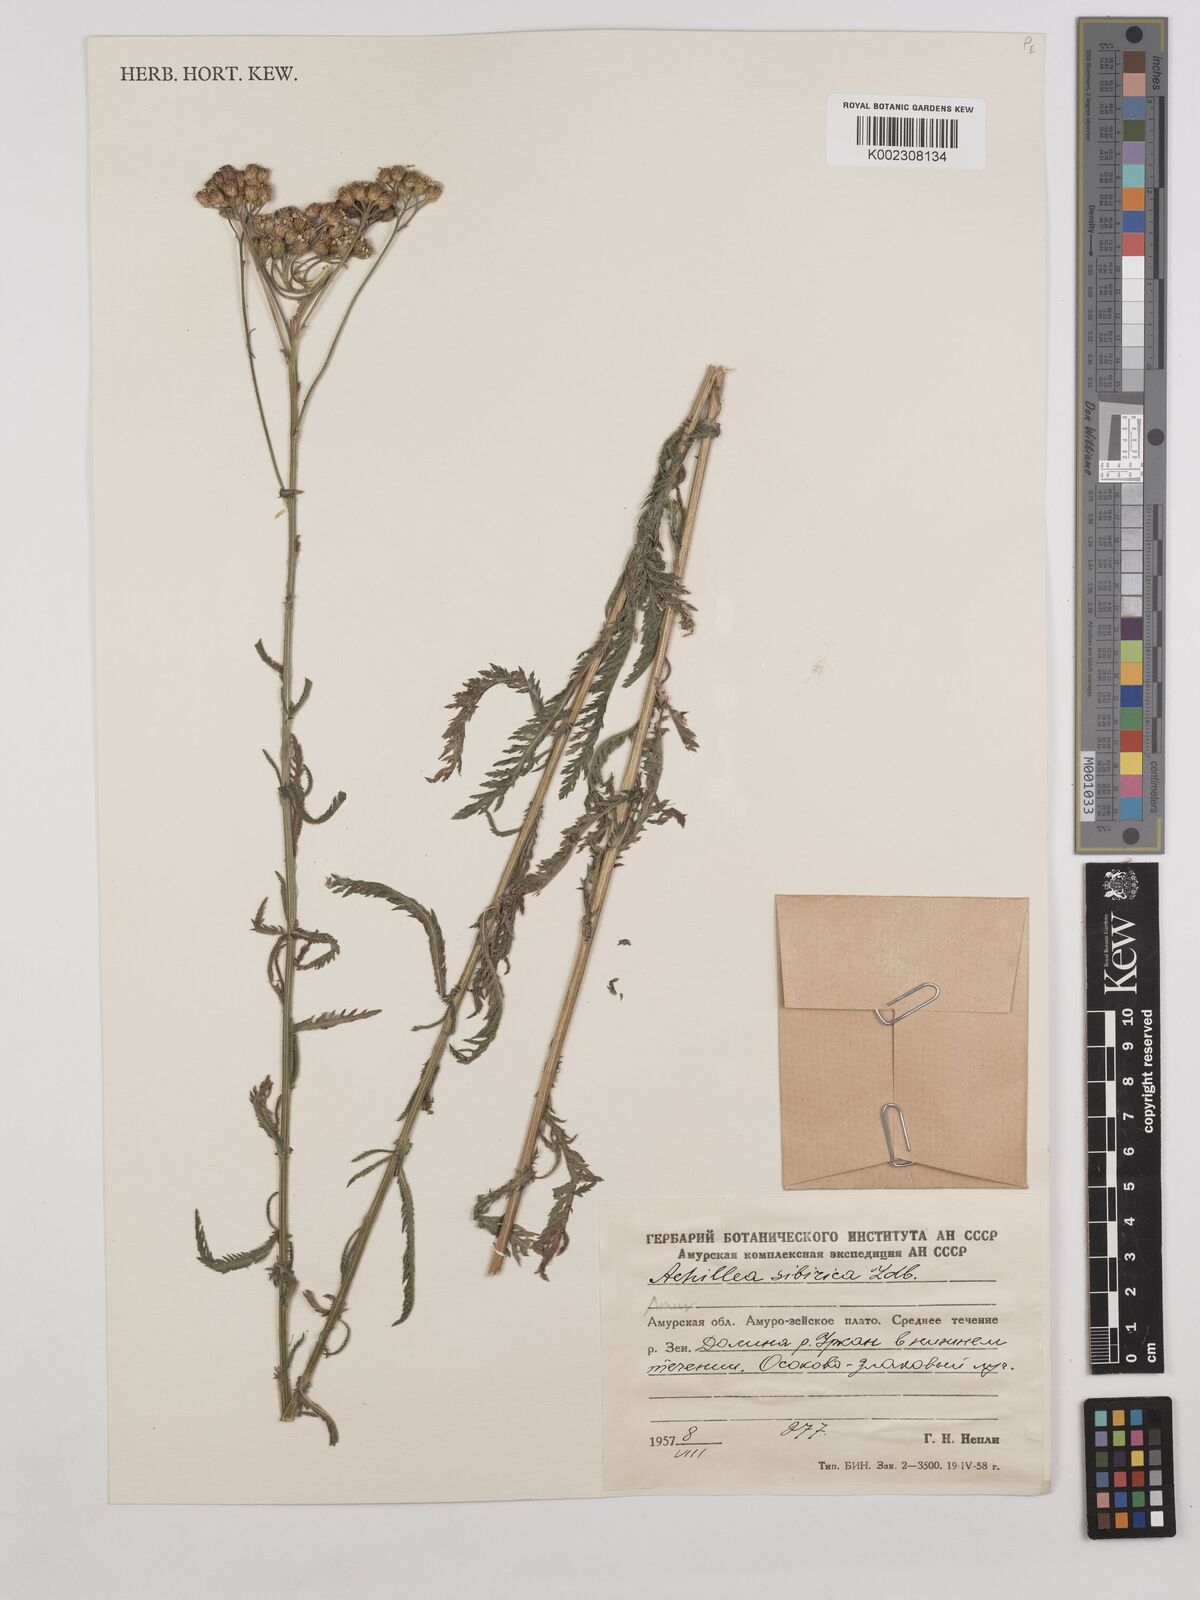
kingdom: Plantae
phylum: Tracheophyta
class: Magnoliopsida
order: Asterales
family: Asteraceae
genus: Achillea
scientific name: Achillea alpina
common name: Siberian yarrow
